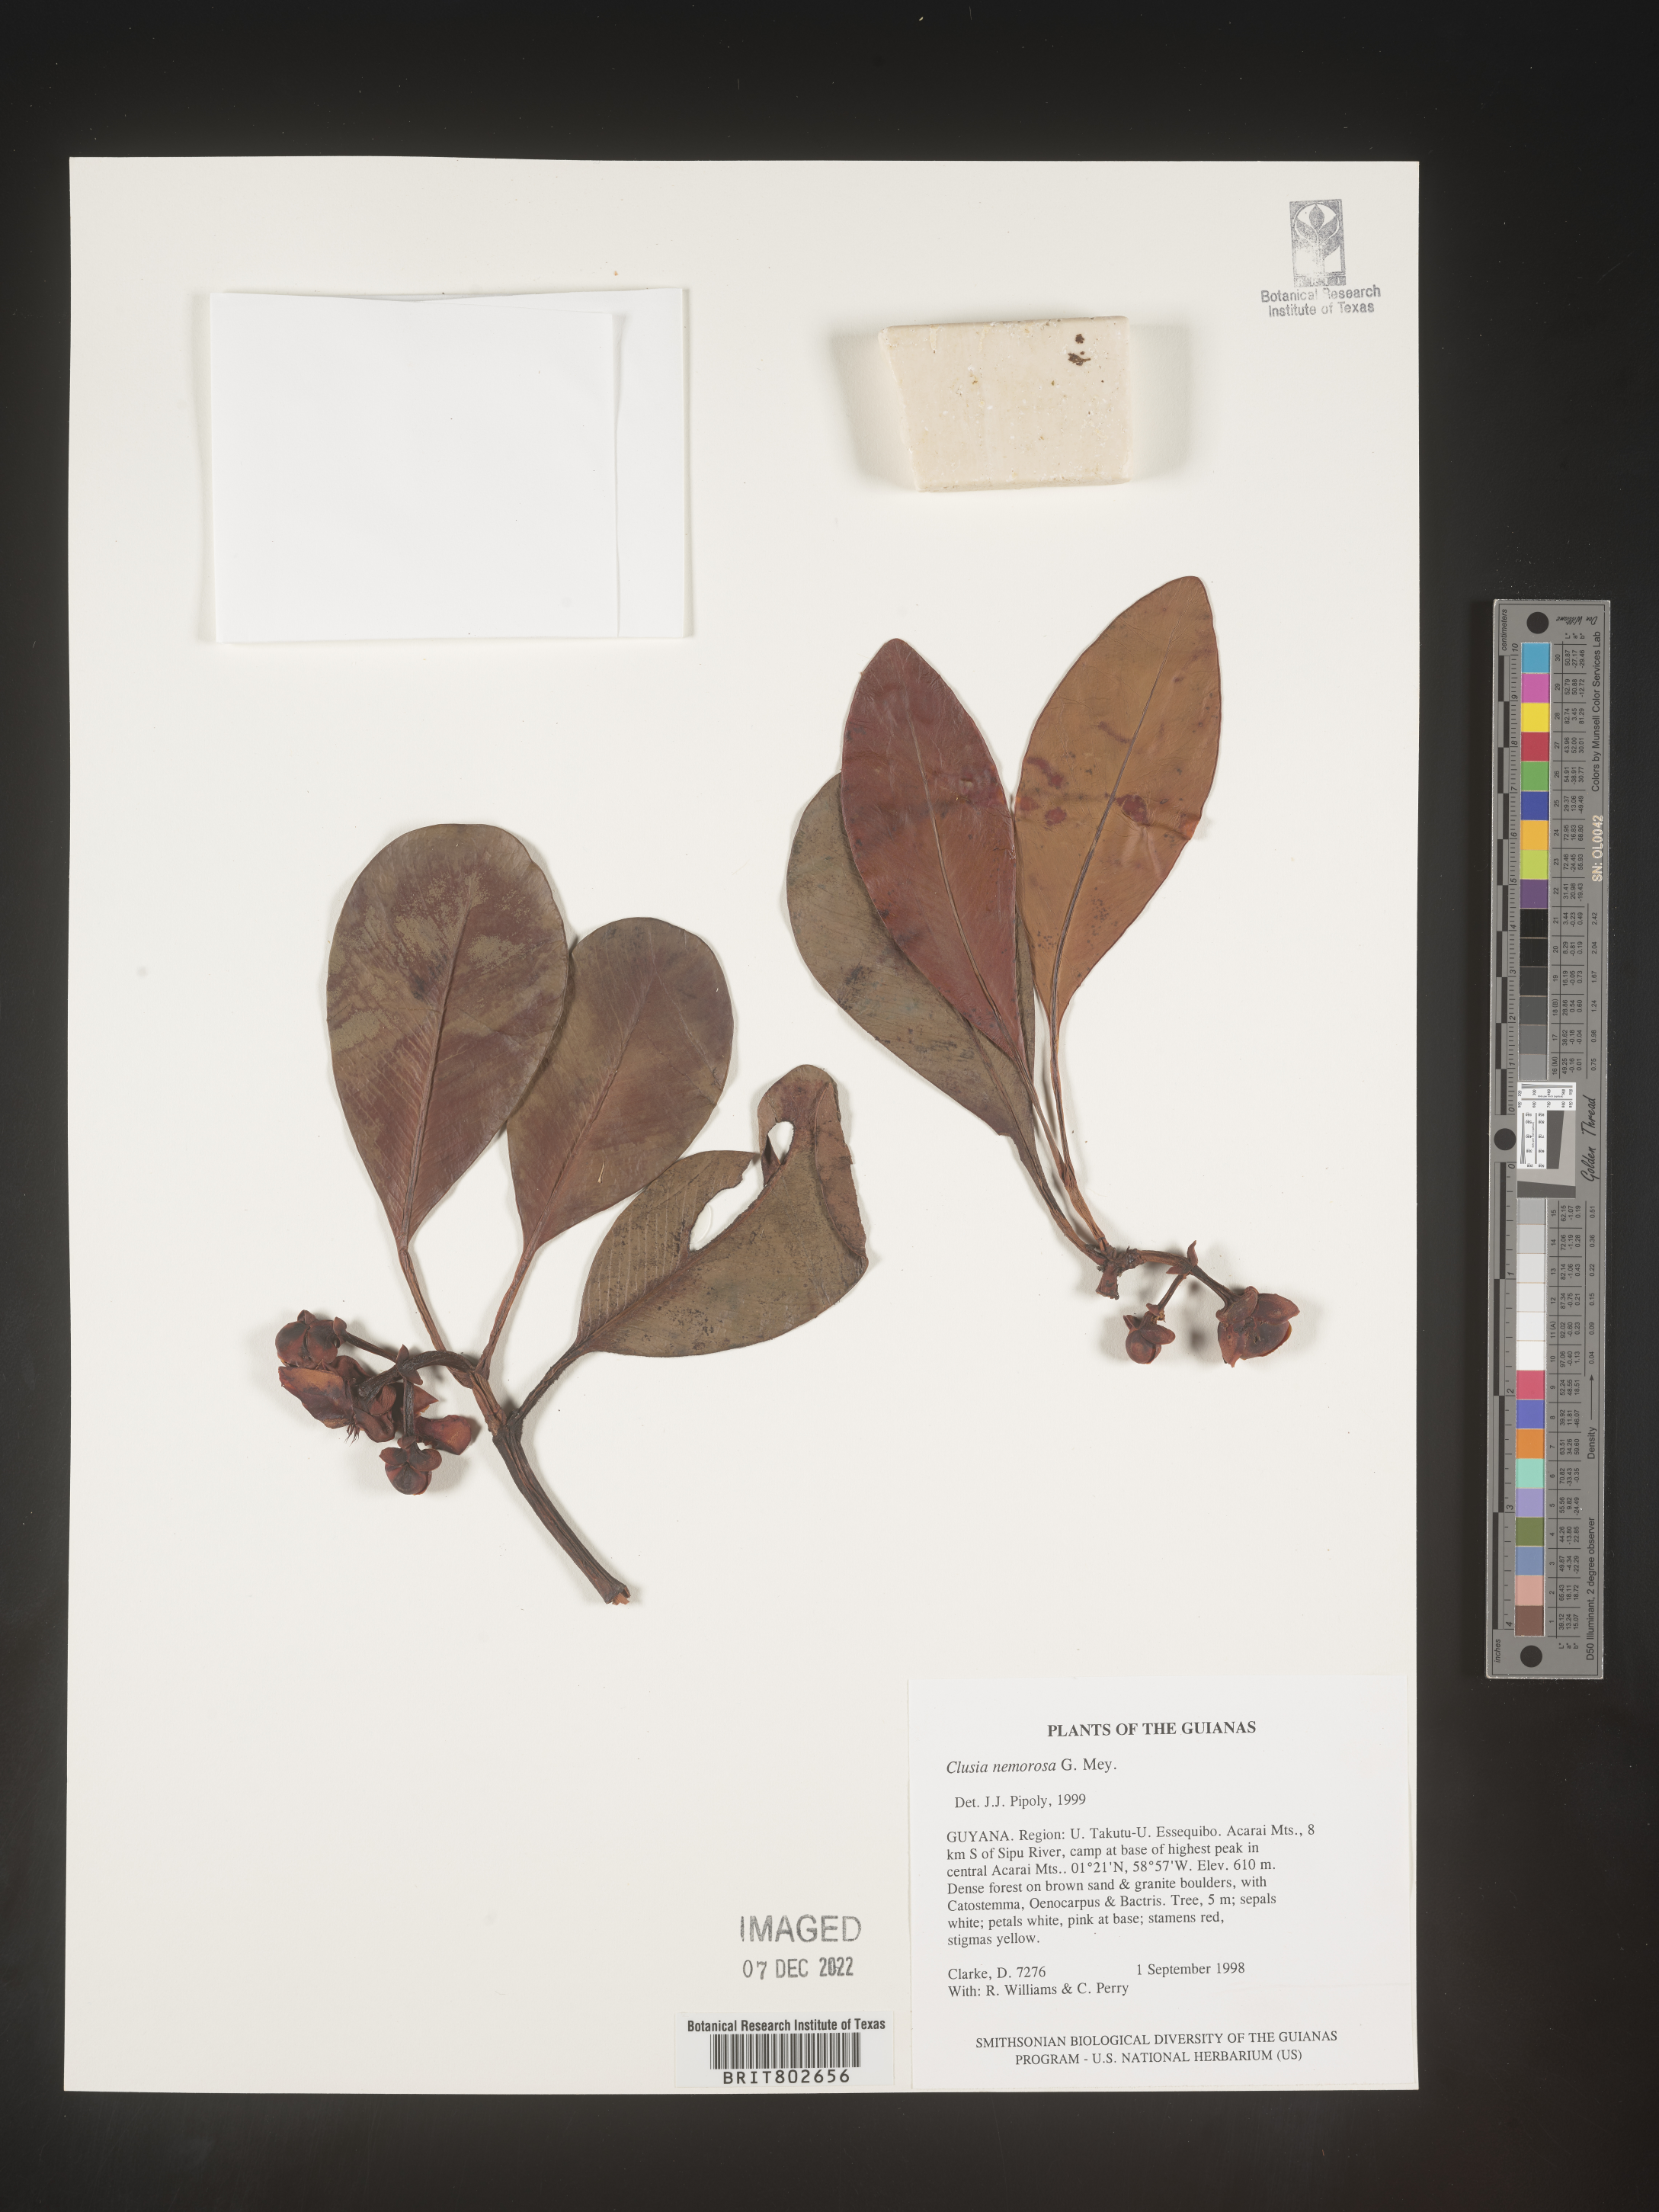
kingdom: Plantae
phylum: Tracheophyta
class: Magnoliopsida
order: Malpighiales
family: Clusiaceae
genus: Clusia
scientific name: Clusia nemorosa
